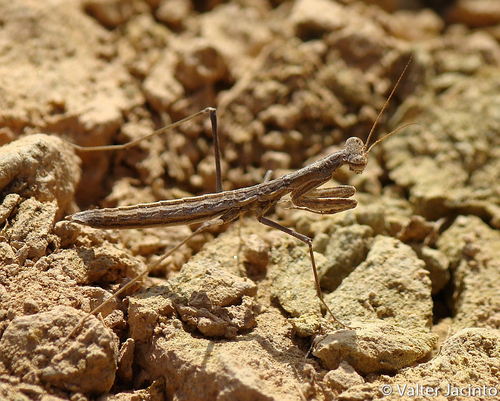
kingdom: Animalia
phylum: Arthropoda
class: Insecta
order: Mantodea
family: Rivetinidae
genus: Geomantis
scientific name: Geomantis larvoides
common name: Wingless ground mantis
